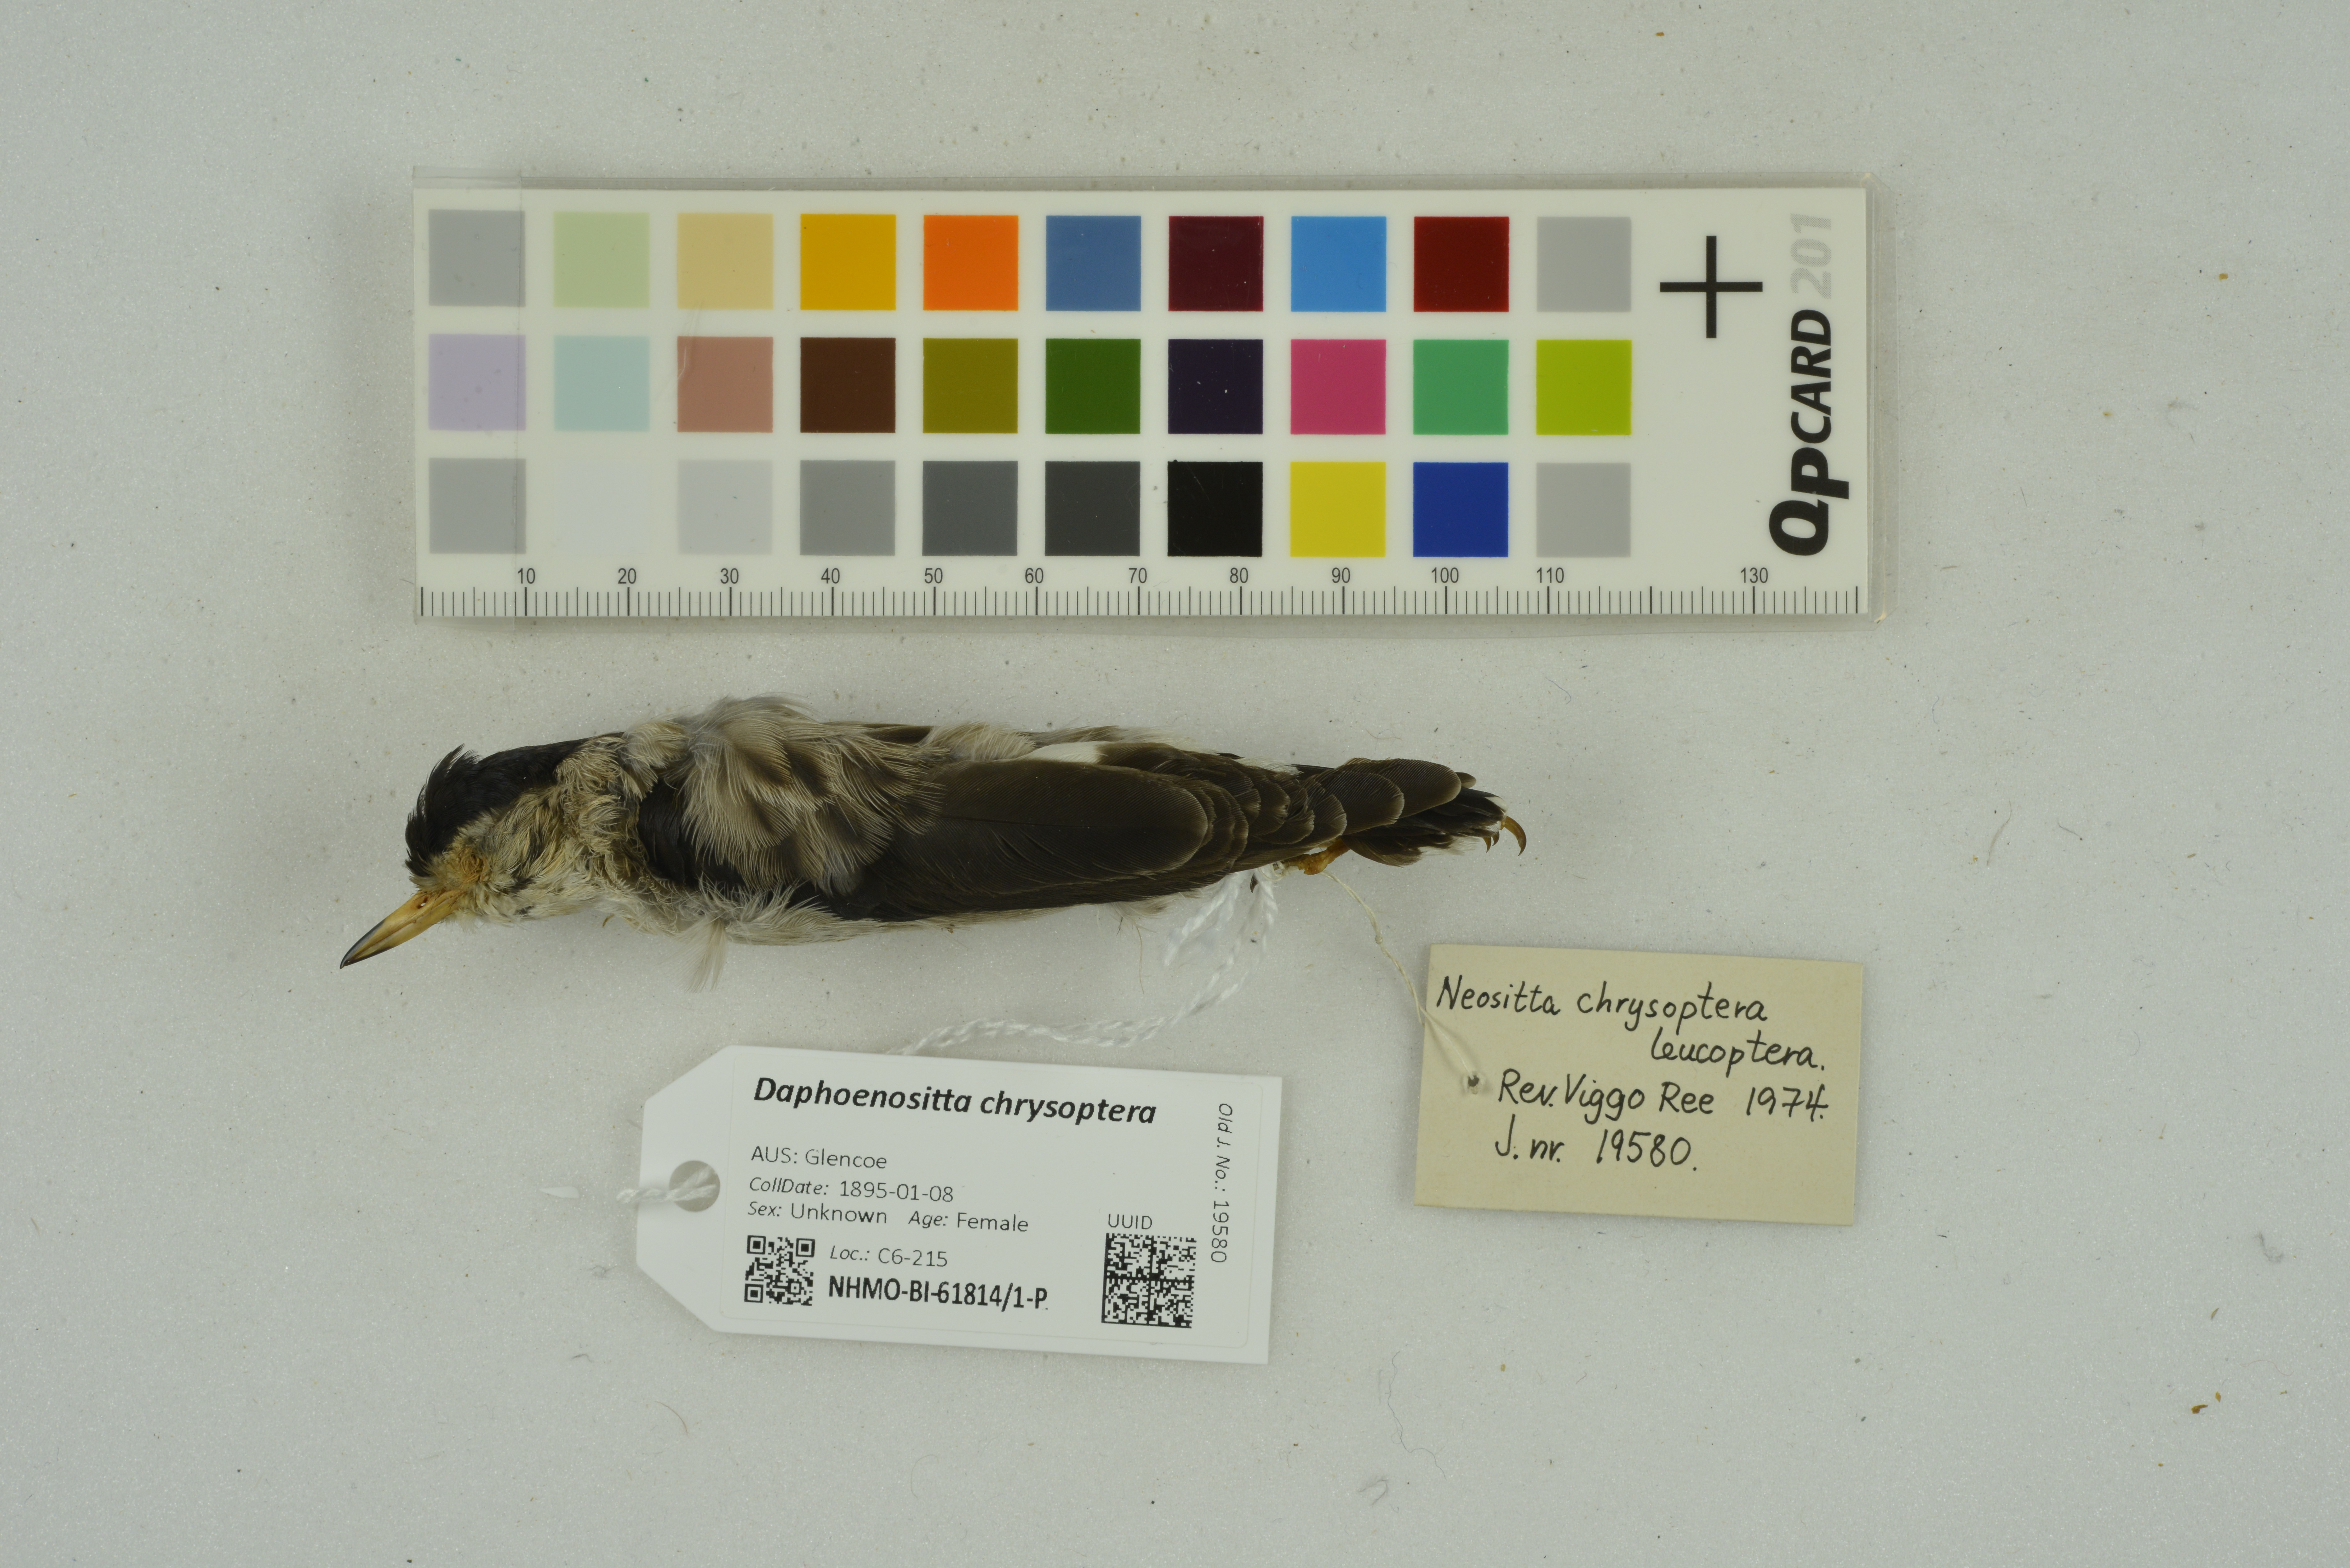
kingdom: Animalia
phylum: Chordata
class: Aves
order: Passeriformes
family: Neosittidae
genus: Daphoenositta
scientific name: Daphoenositta chrysoptera
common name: Varied sittella
